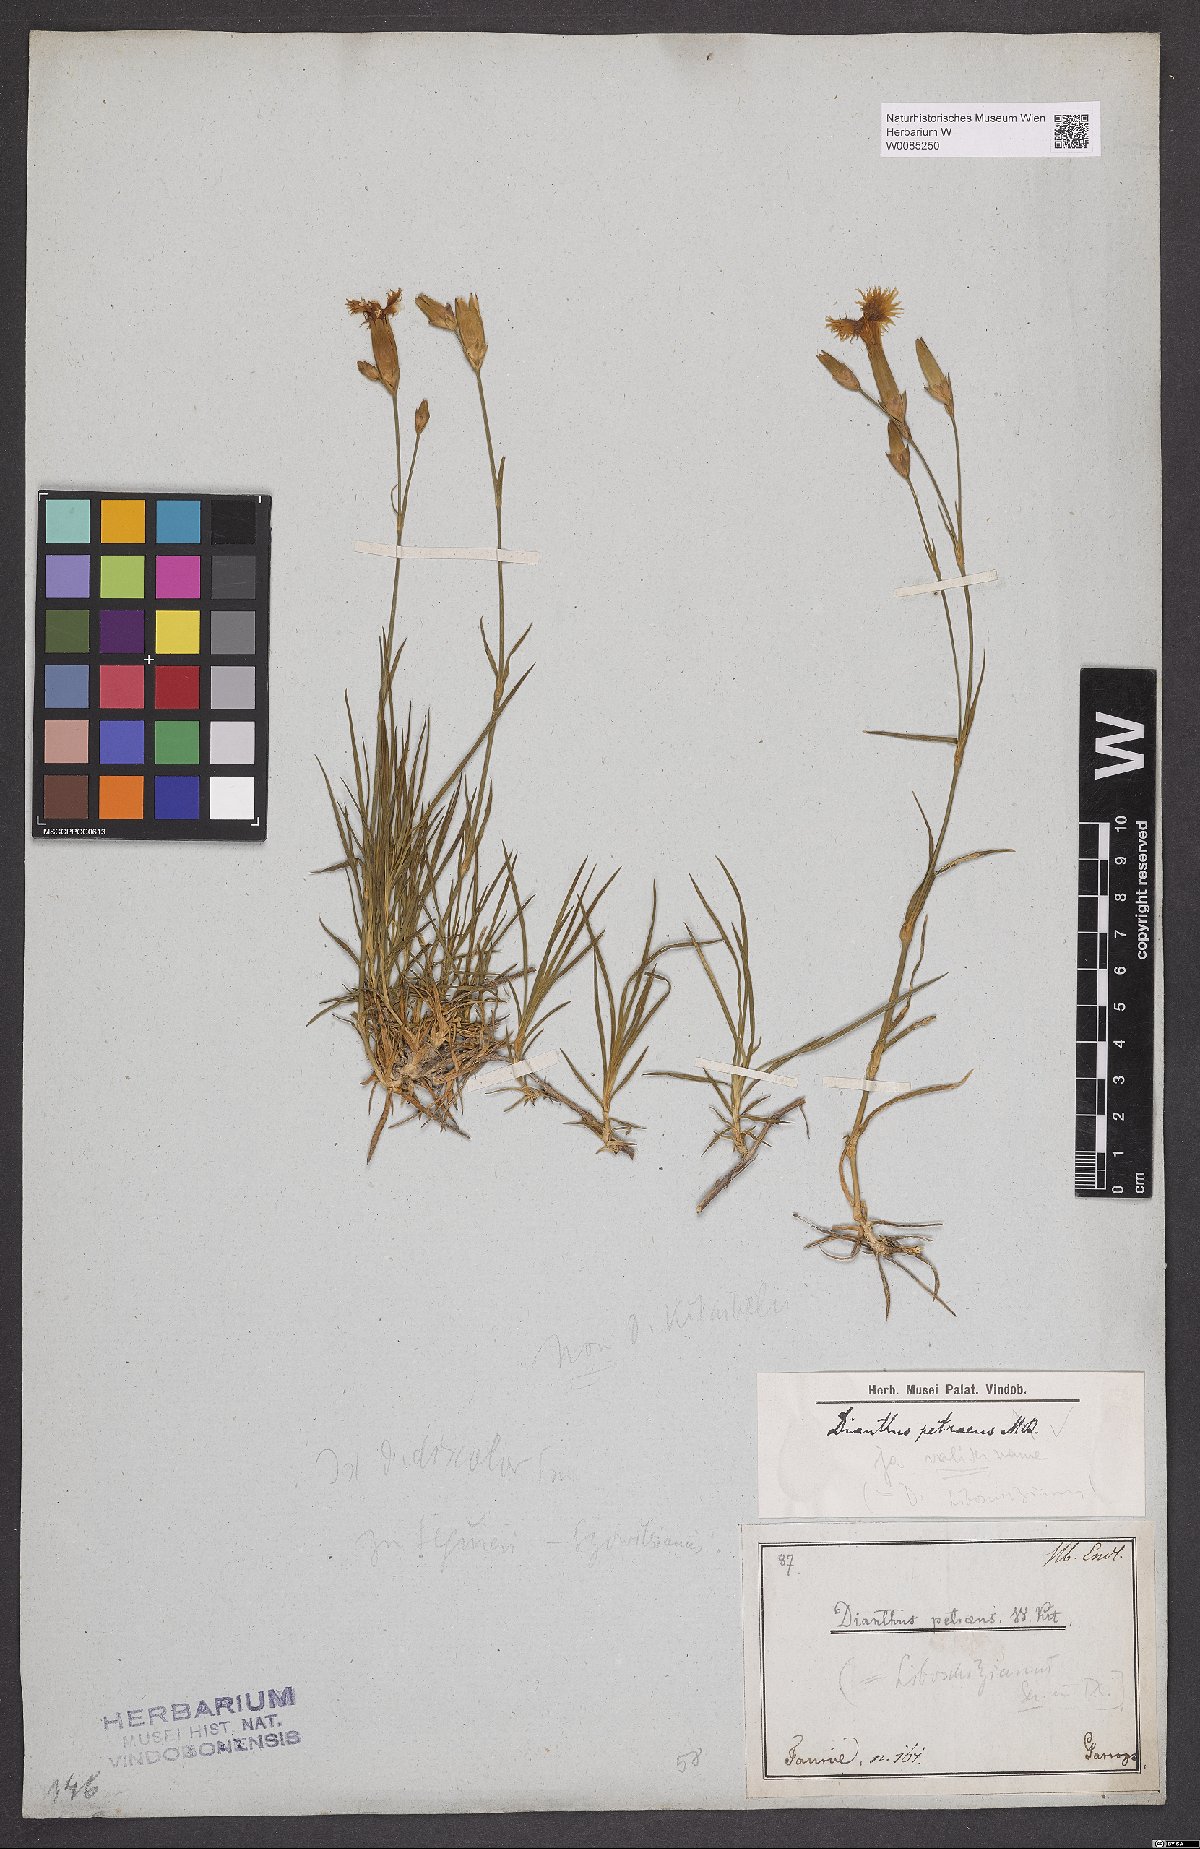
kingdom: Plantae
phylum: Tracheophyta
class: Magnoliopsida
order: Caryophyllales
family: Caryophyllaceae
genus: Dianthus
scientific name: Dianthus petraeus
